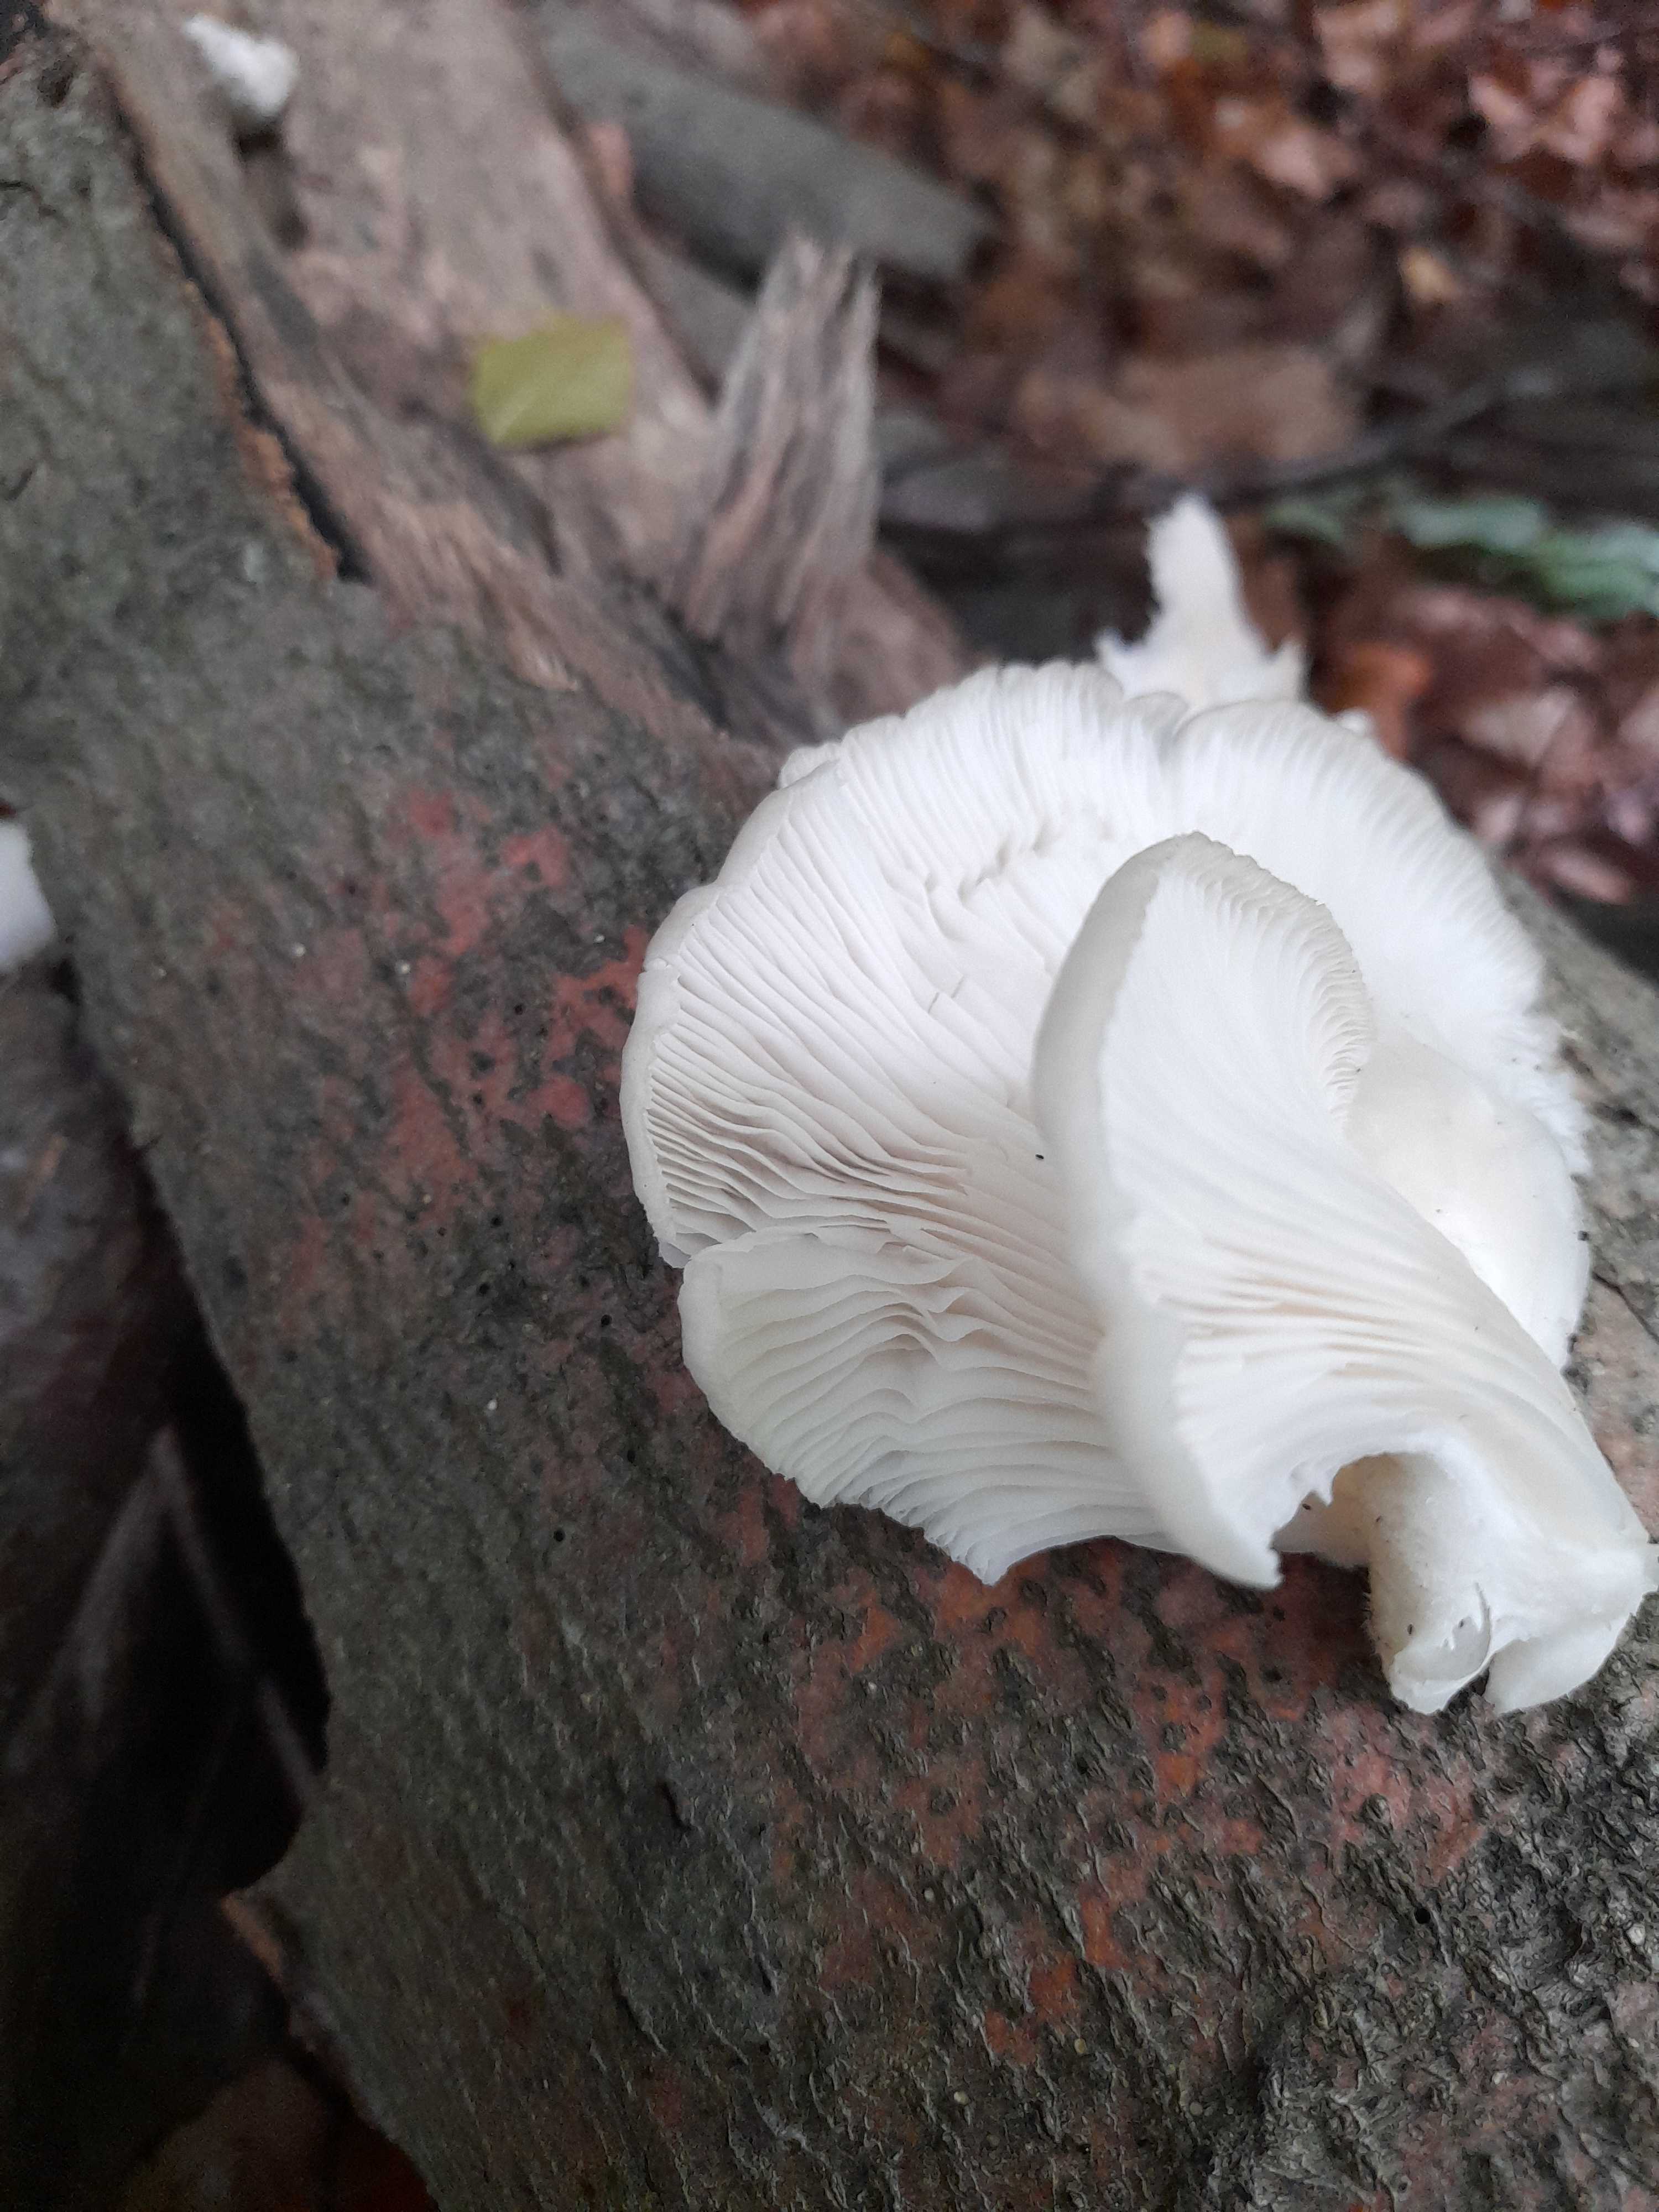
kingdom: Fungi
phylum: Basidiomycota
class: Agaricomycetes
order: Agaricales
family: Pleurotaceae
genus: Pleurotus
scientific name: Pleurotus pulmonarius
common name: sommer-østershat
